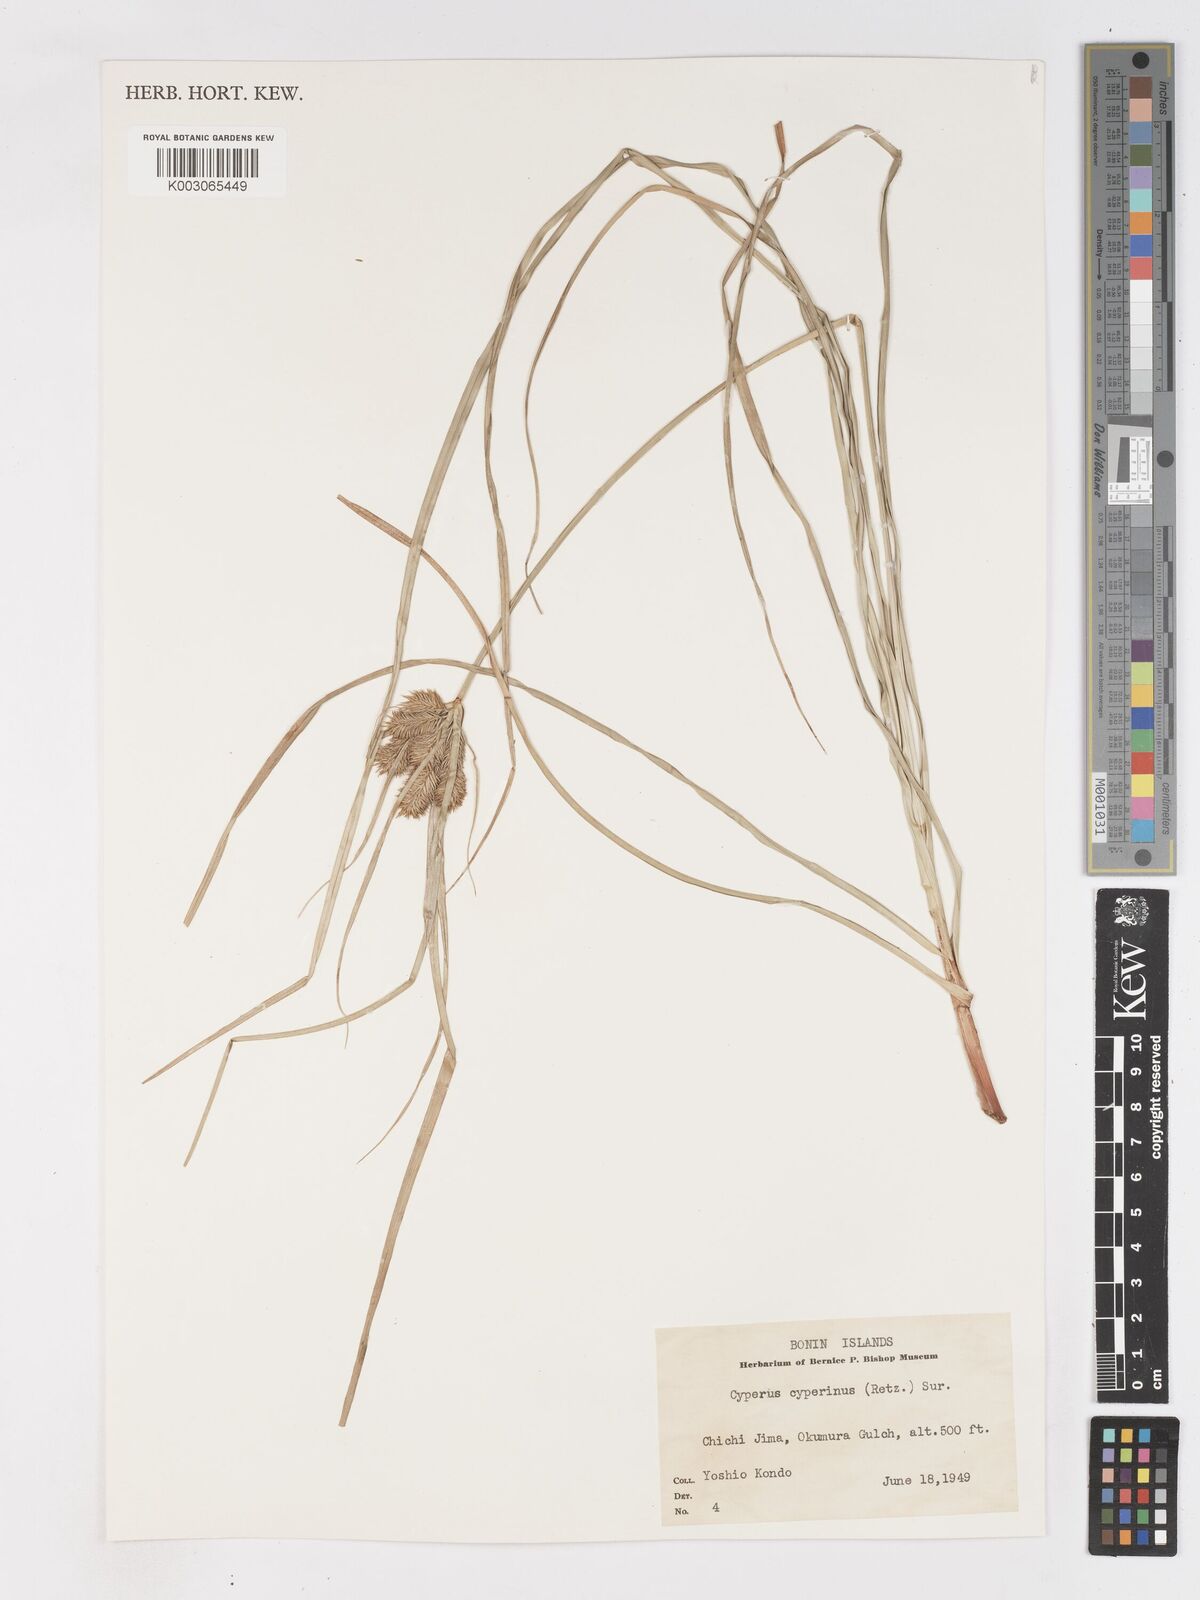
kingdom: Plantae
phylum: Tracheophyta
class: Liliopsida
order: Poales
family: Cyperaceae
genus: Cyperus
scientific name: Cyperus cyperinus
